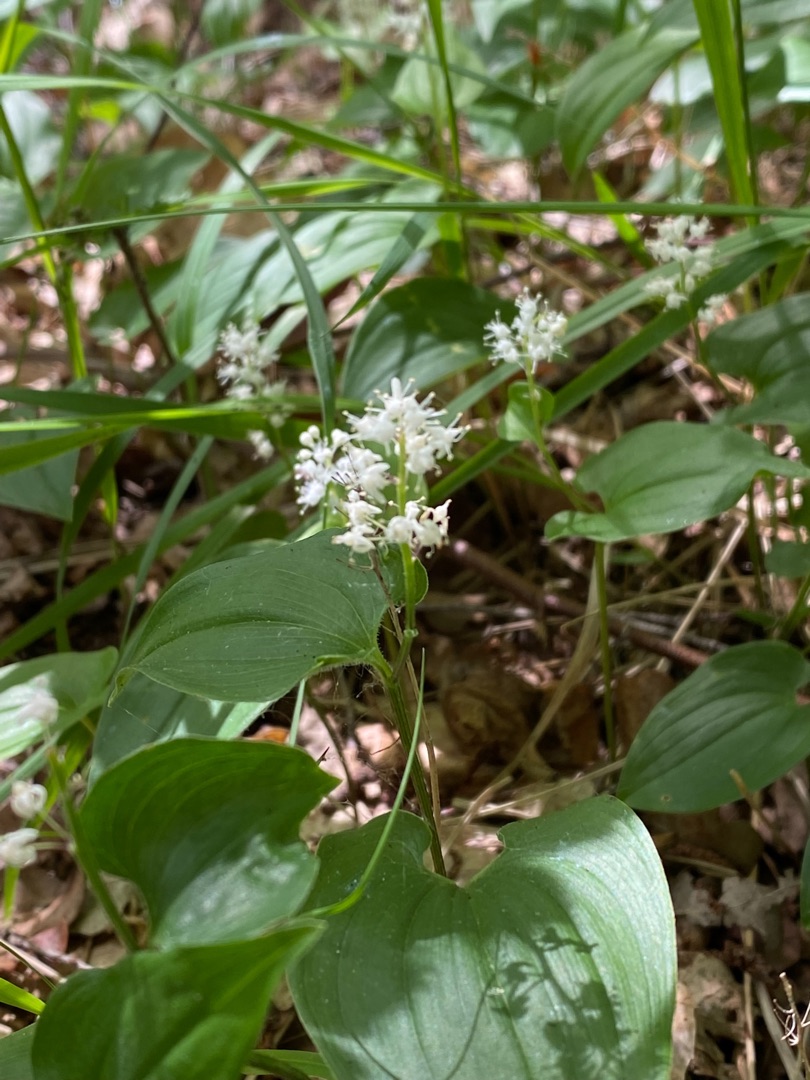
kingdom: Plantae
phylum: Tracheophyta
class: Liliopsida
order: Asparagales
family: Asparagaceae
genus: Maianthemum
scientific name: Maianthemum bifolium
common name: Majblomst
